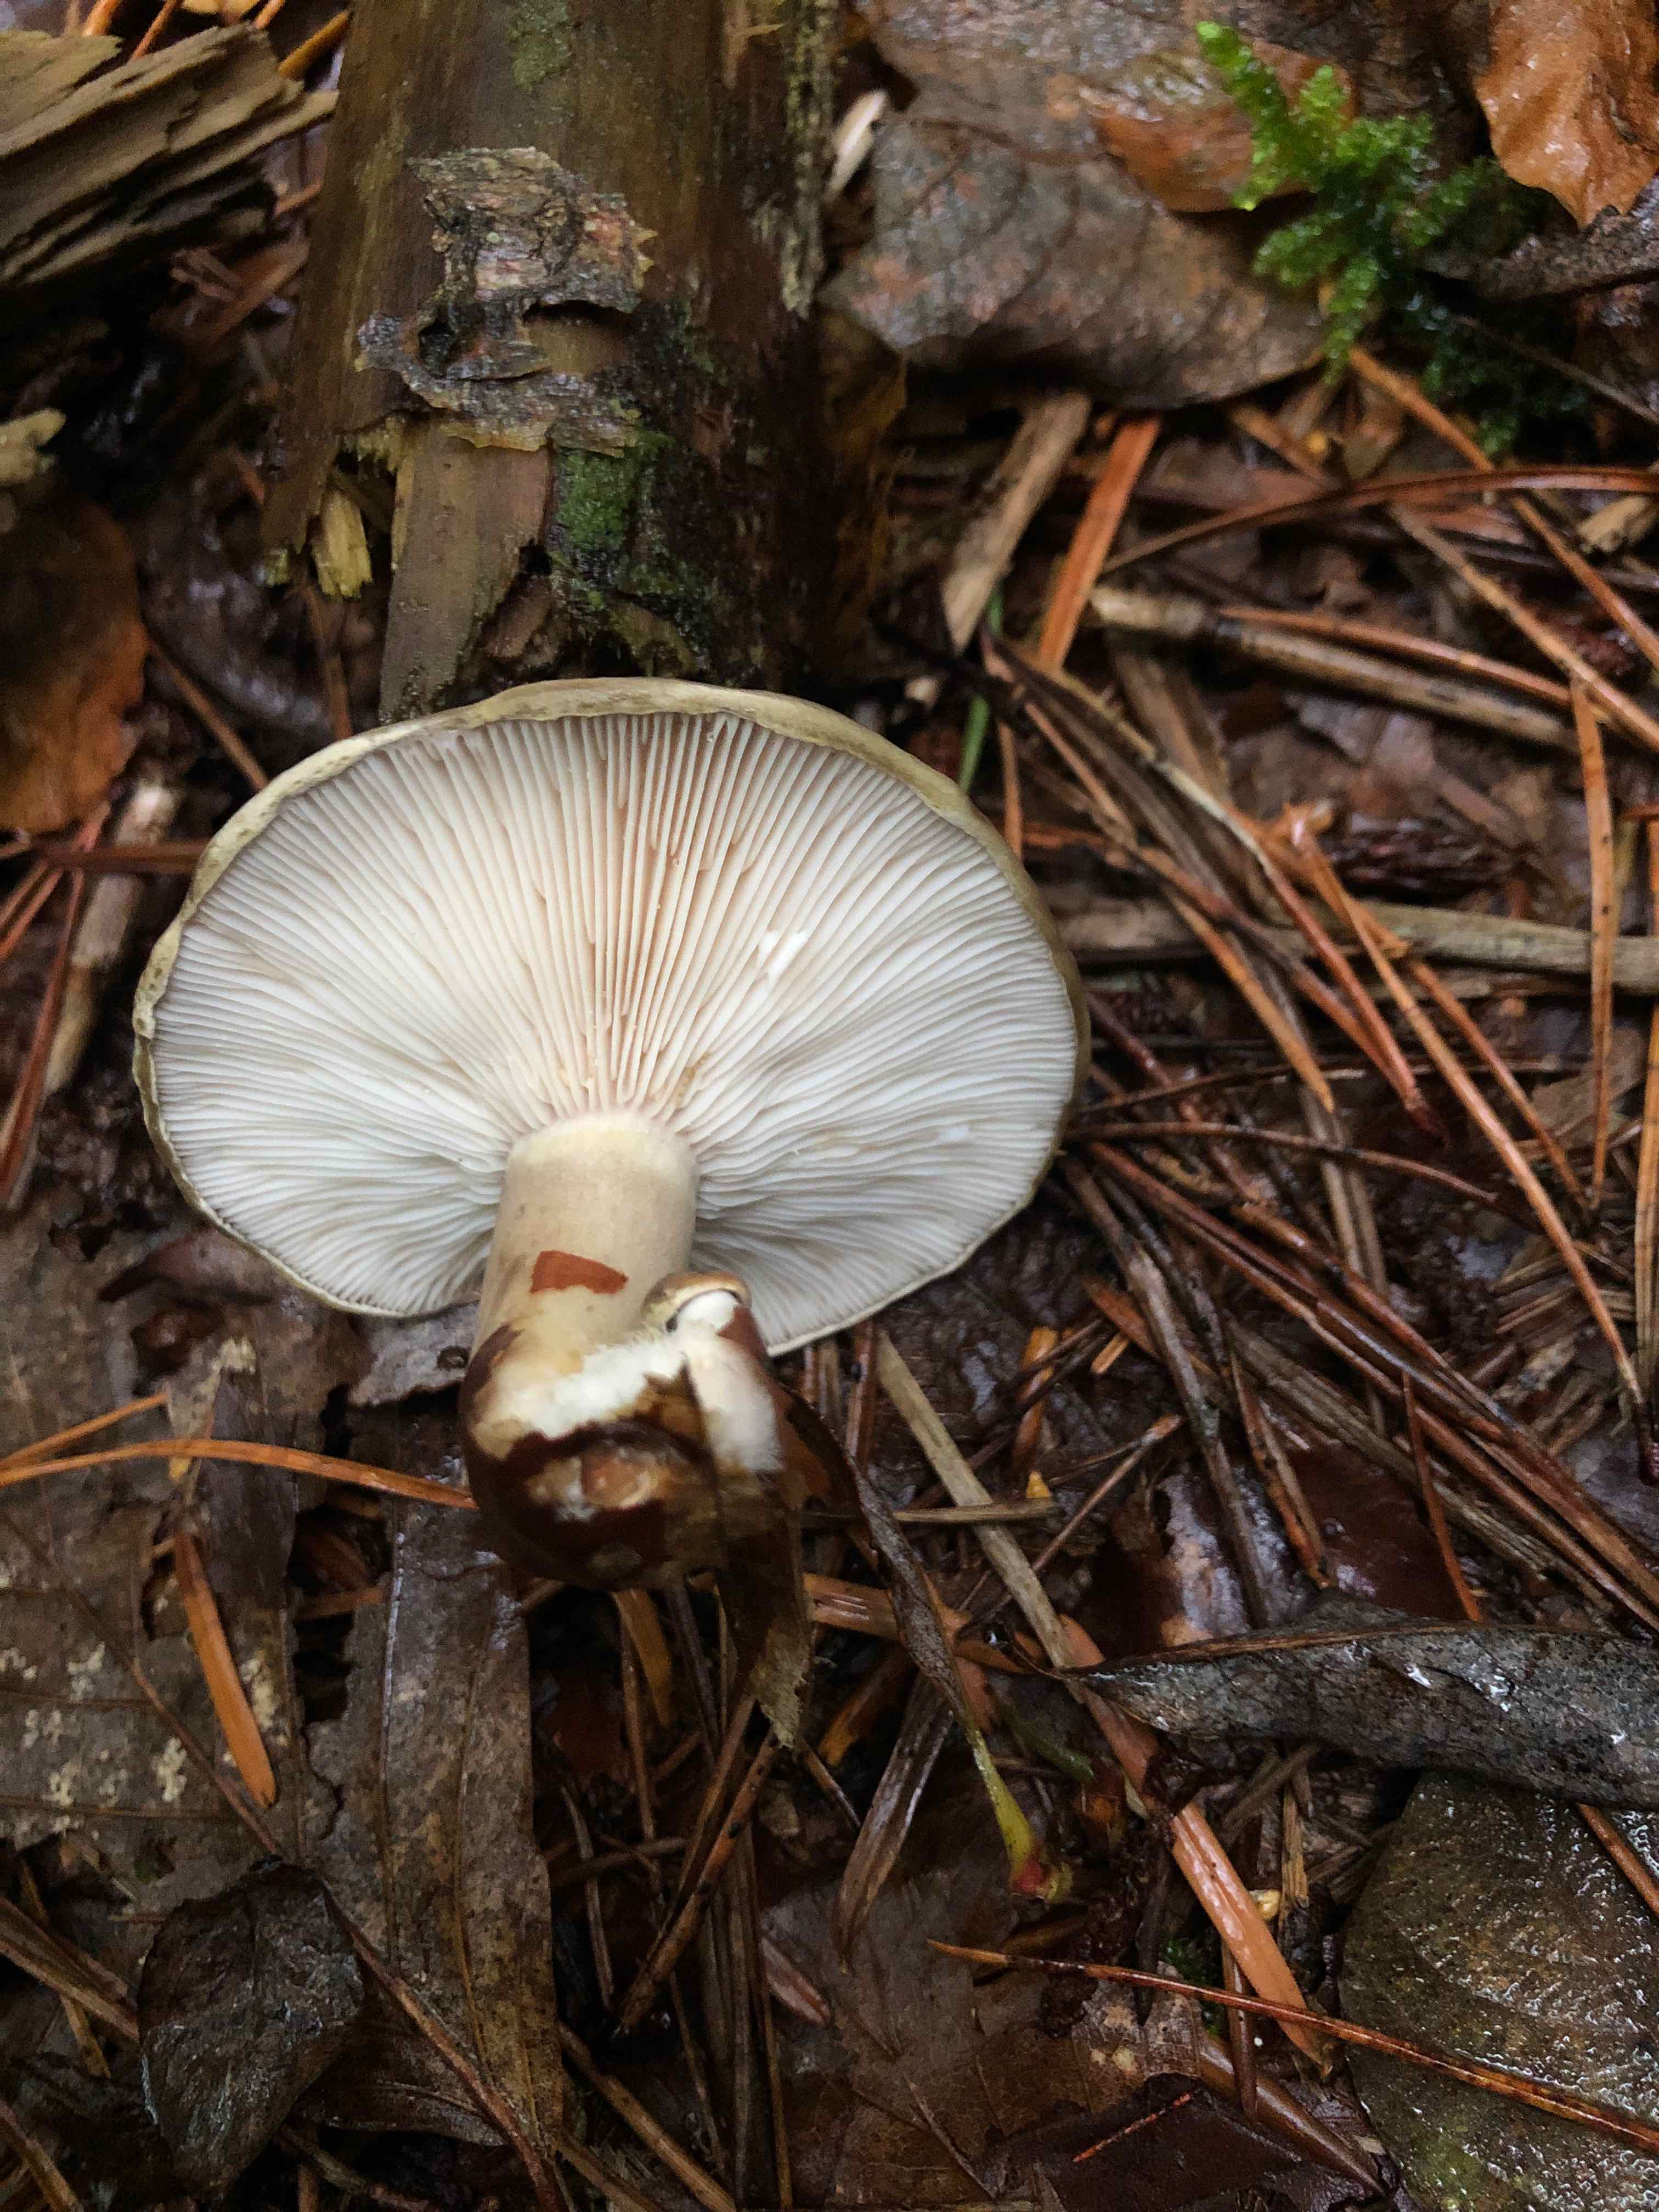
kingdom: Fungi
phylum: Basidiomycota
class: Agaricomycetes
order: Russulales
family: Russulaceae
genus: Lactarius
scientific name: Lactarius blennius
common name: dråbeplettet mælkehat
